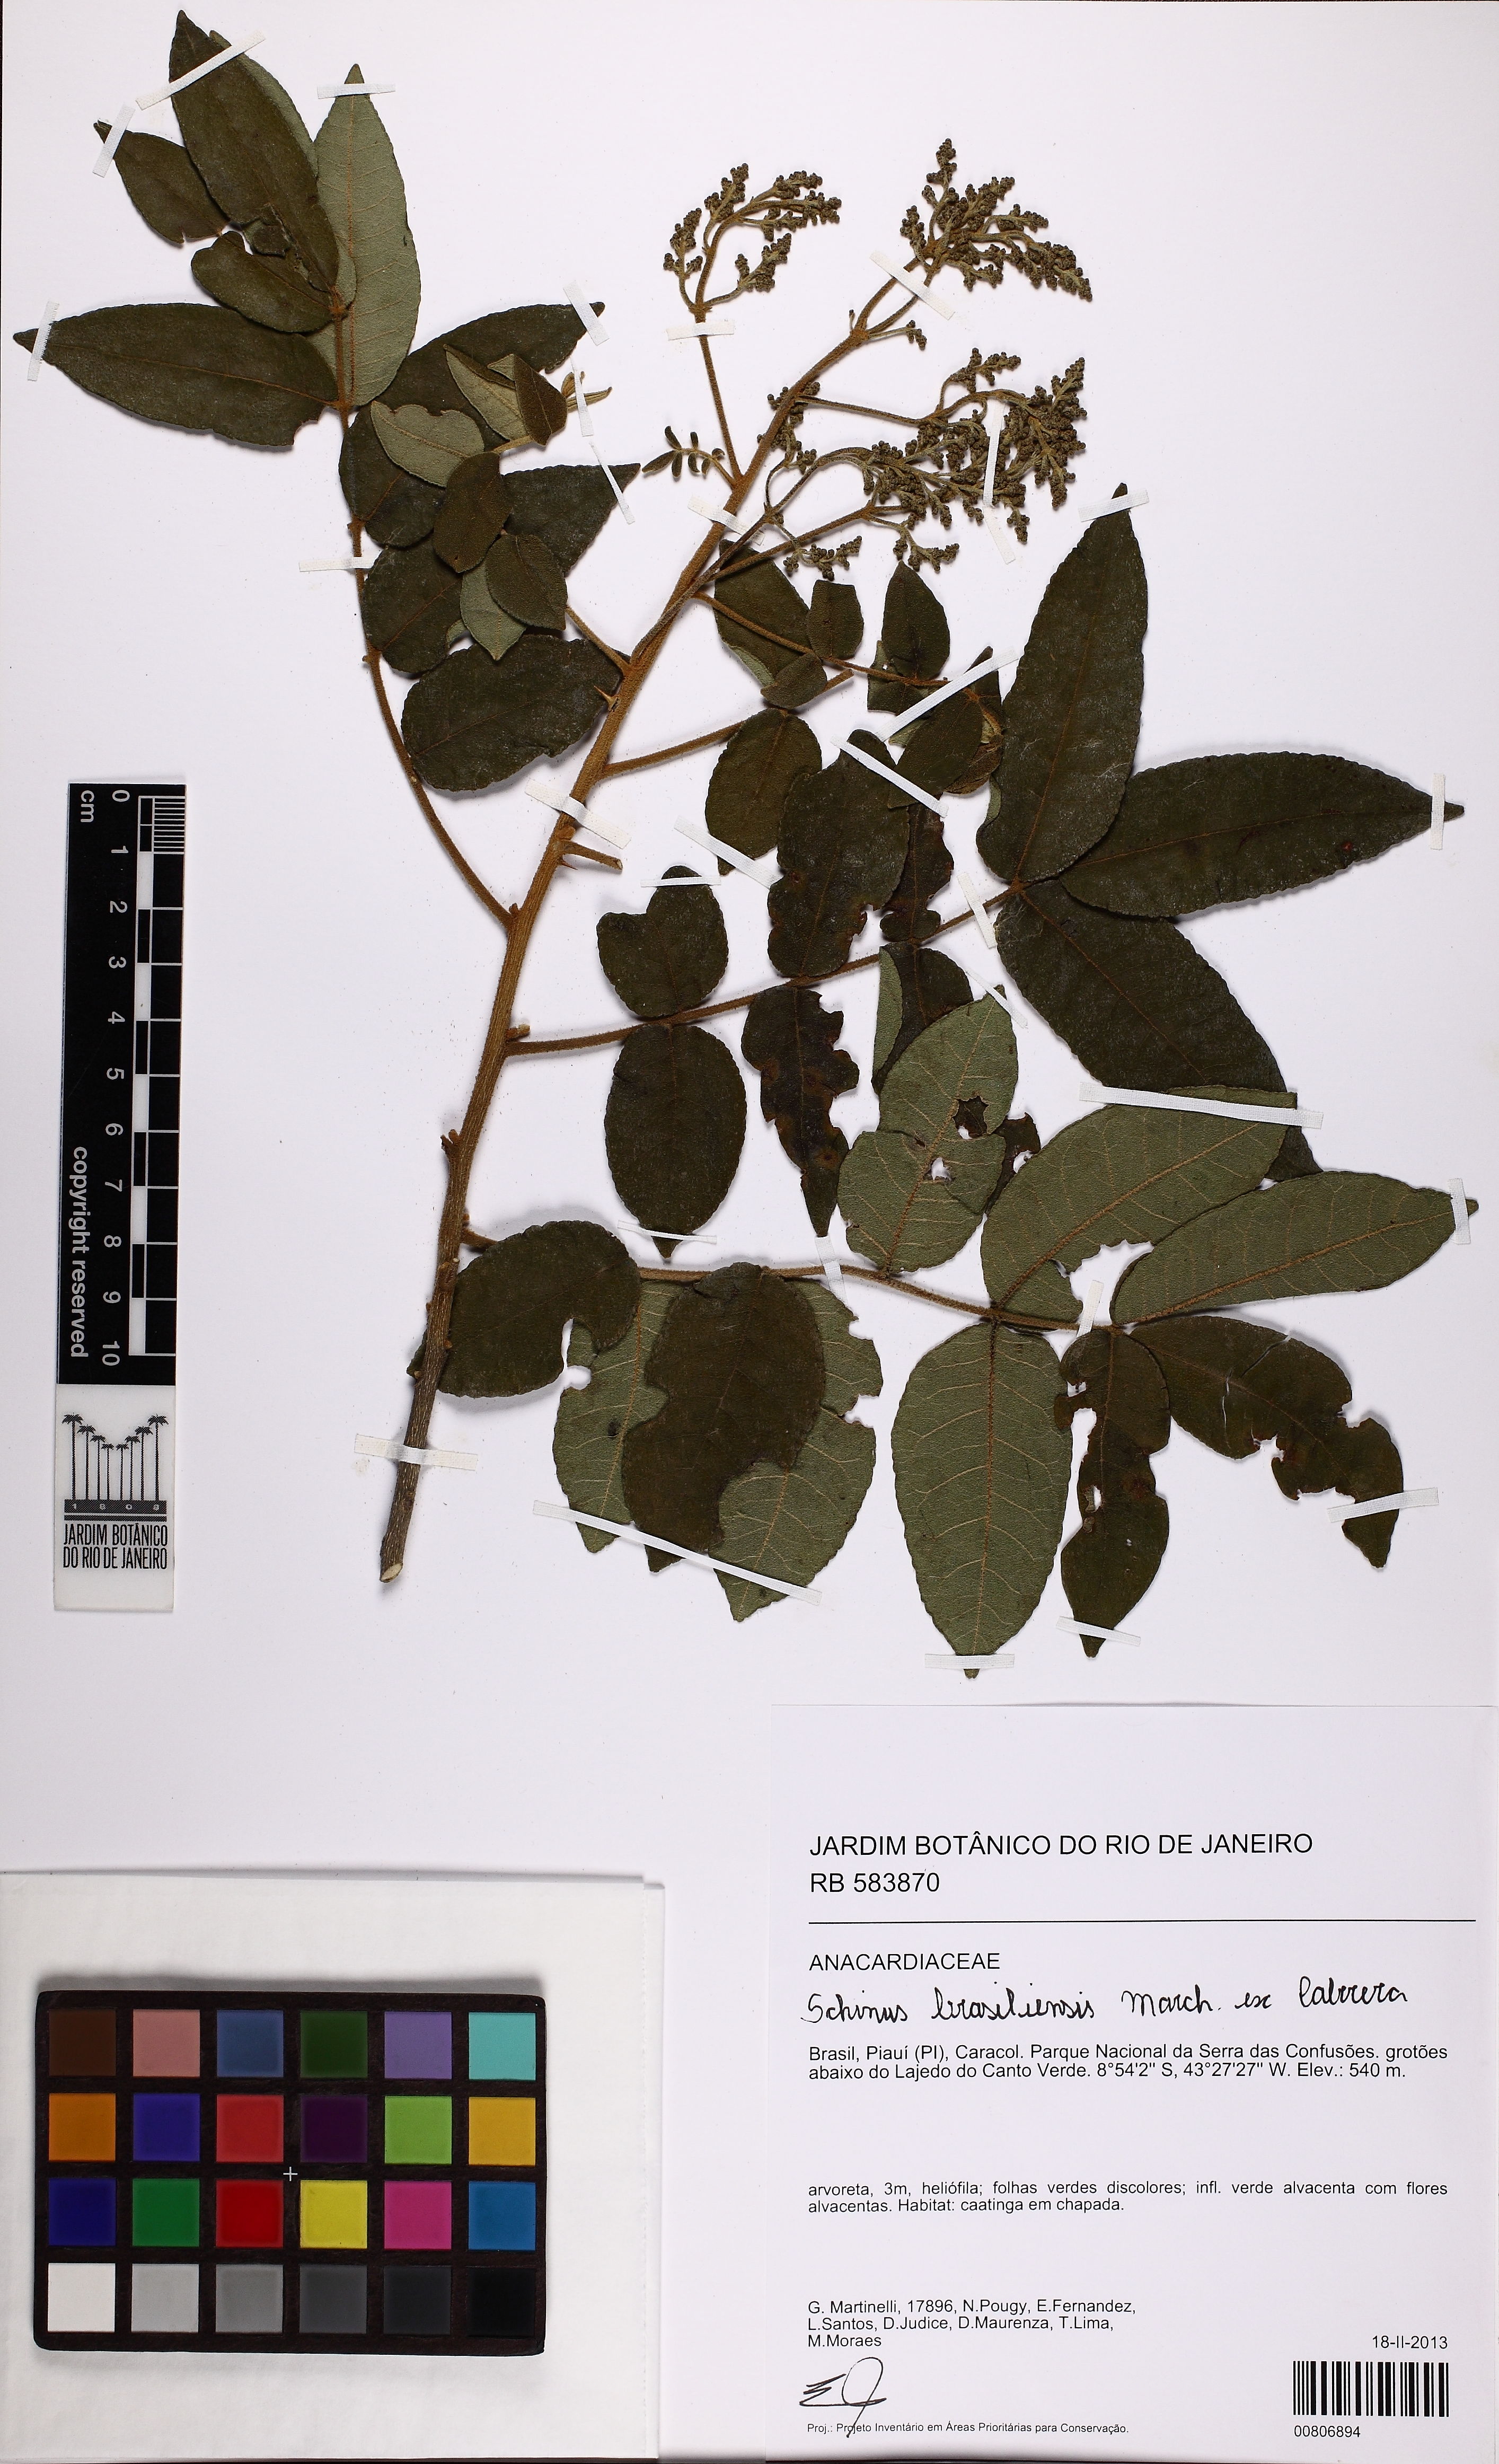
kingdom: Plantae
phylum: Tracheophyta
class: Magnoliopsida
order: Sapindales
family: Anacardiaceae
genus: Schinus
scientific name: Schinus brasiliensis
